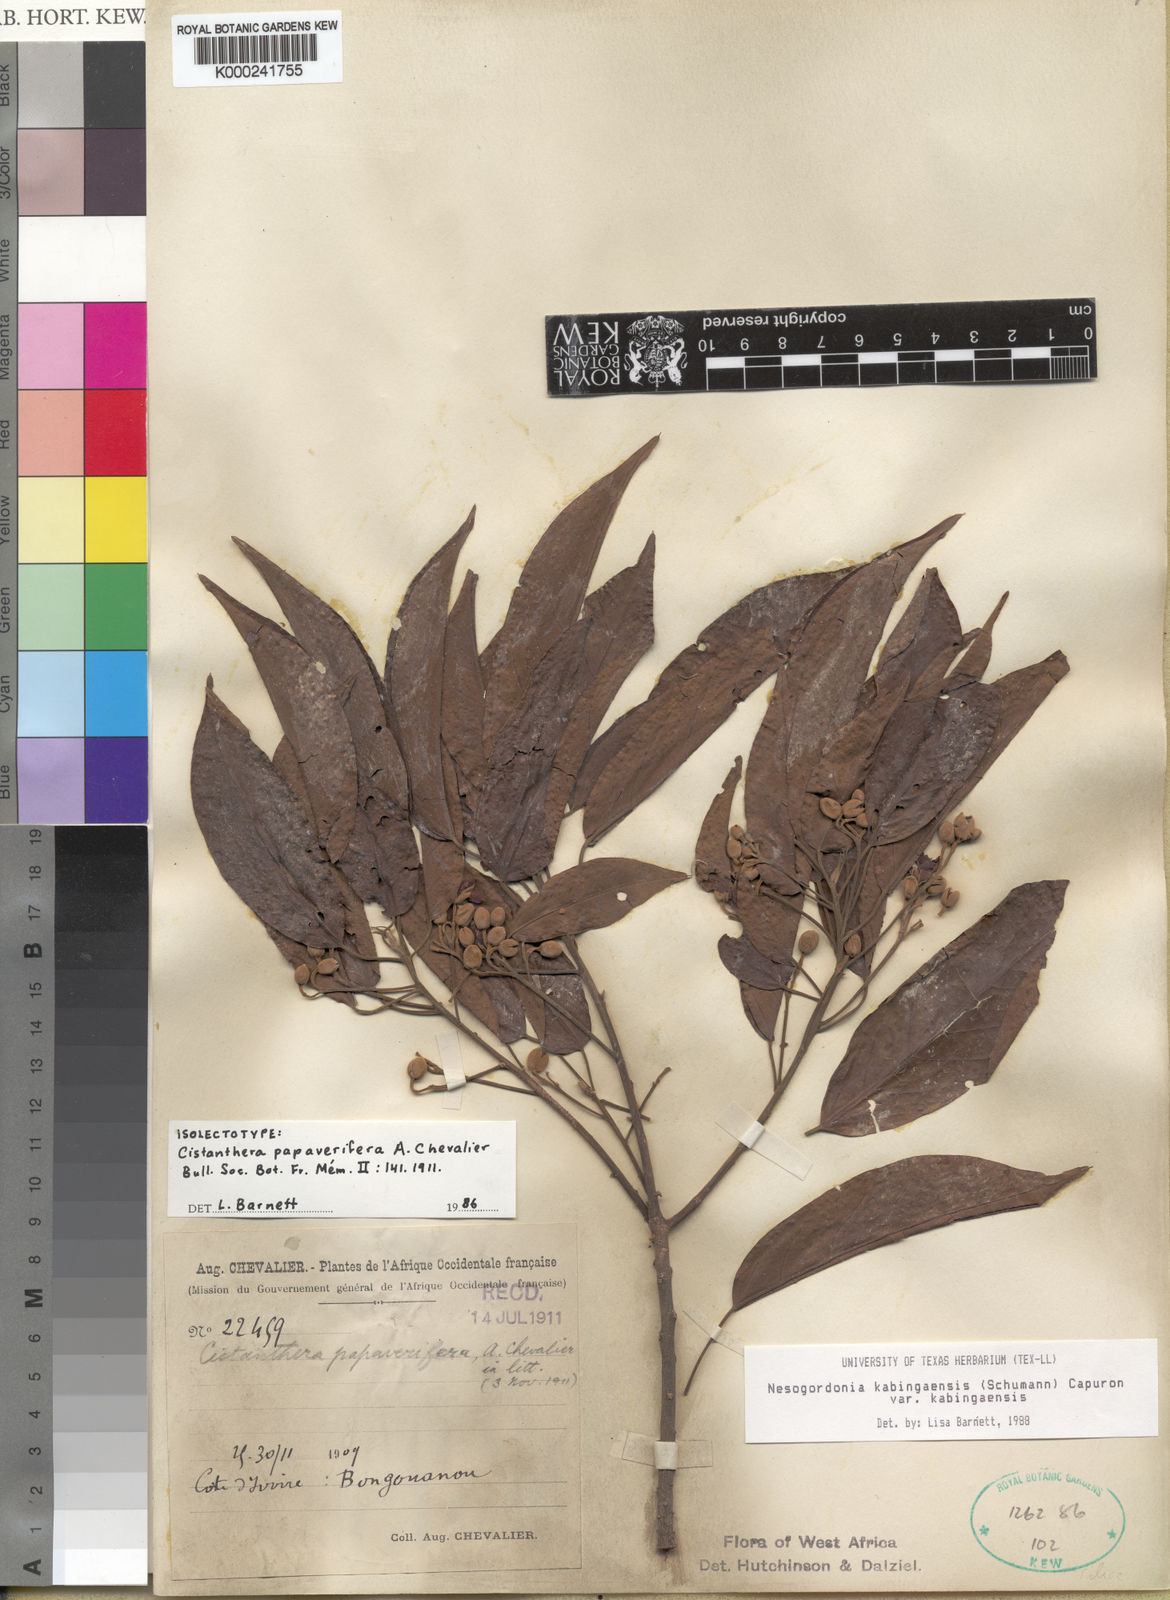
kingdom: Plantae
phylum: Tracheophyta
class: Magnoliopsida
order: Malvales
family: Malvaceae
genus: Nesogordonia
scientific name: Nesogordonia
